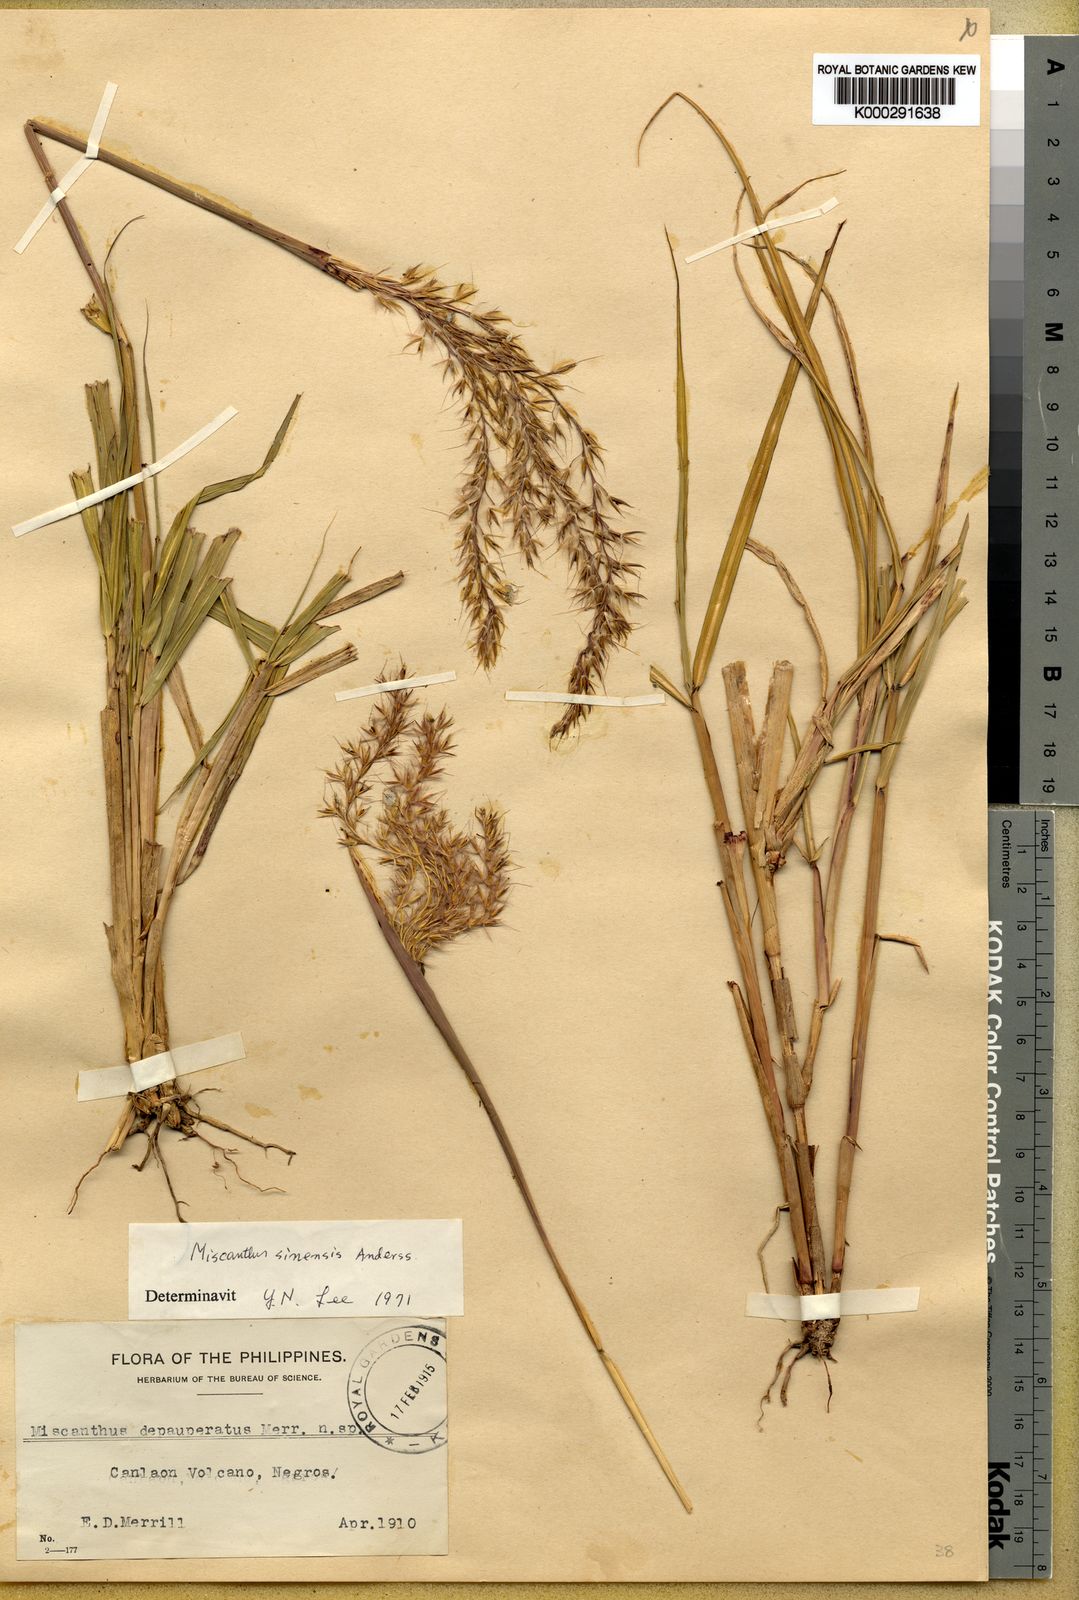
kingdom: Plantae
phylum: Tracheophyta
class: Liliopsida
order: Poales
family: Poaceae
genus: Miscanthus
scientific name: Miscanthus depauperatus
